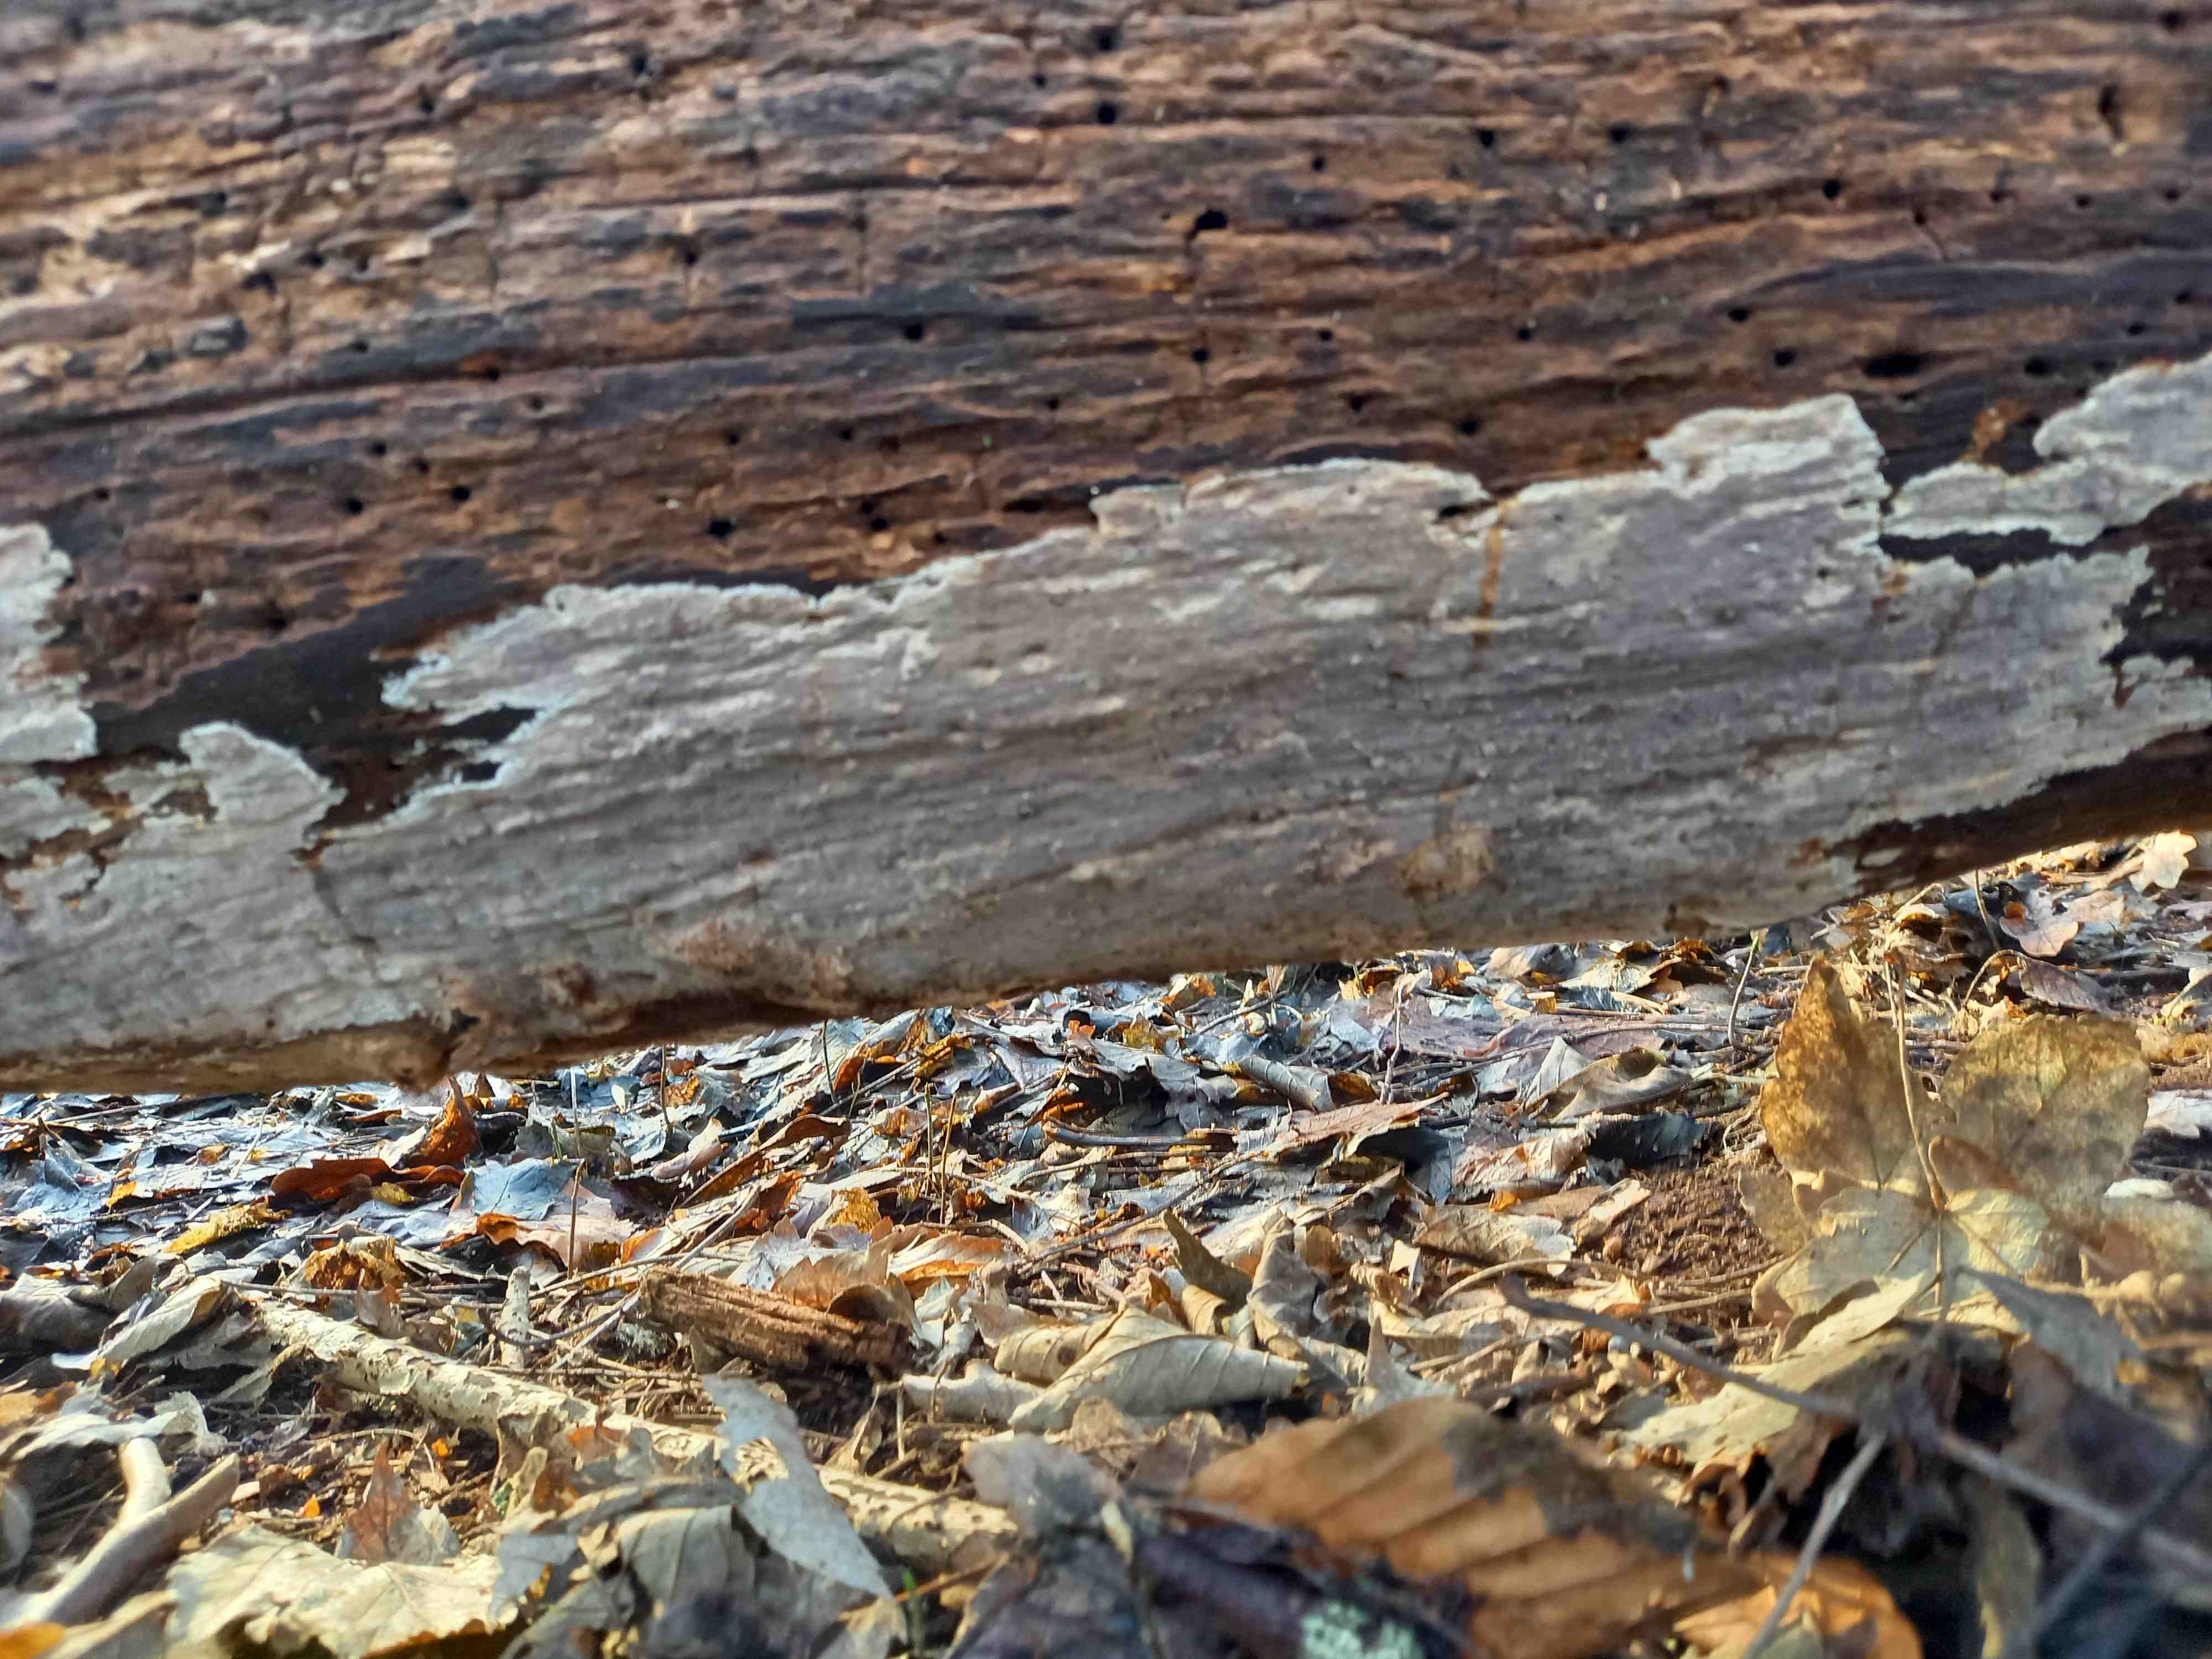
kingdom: Fungi
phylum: Basidiomycota
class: Agaricomycetes
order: Russulales
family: Peniophoraceae
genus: Scytinostroma
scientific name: Scytinostroma hemidichophyticum
